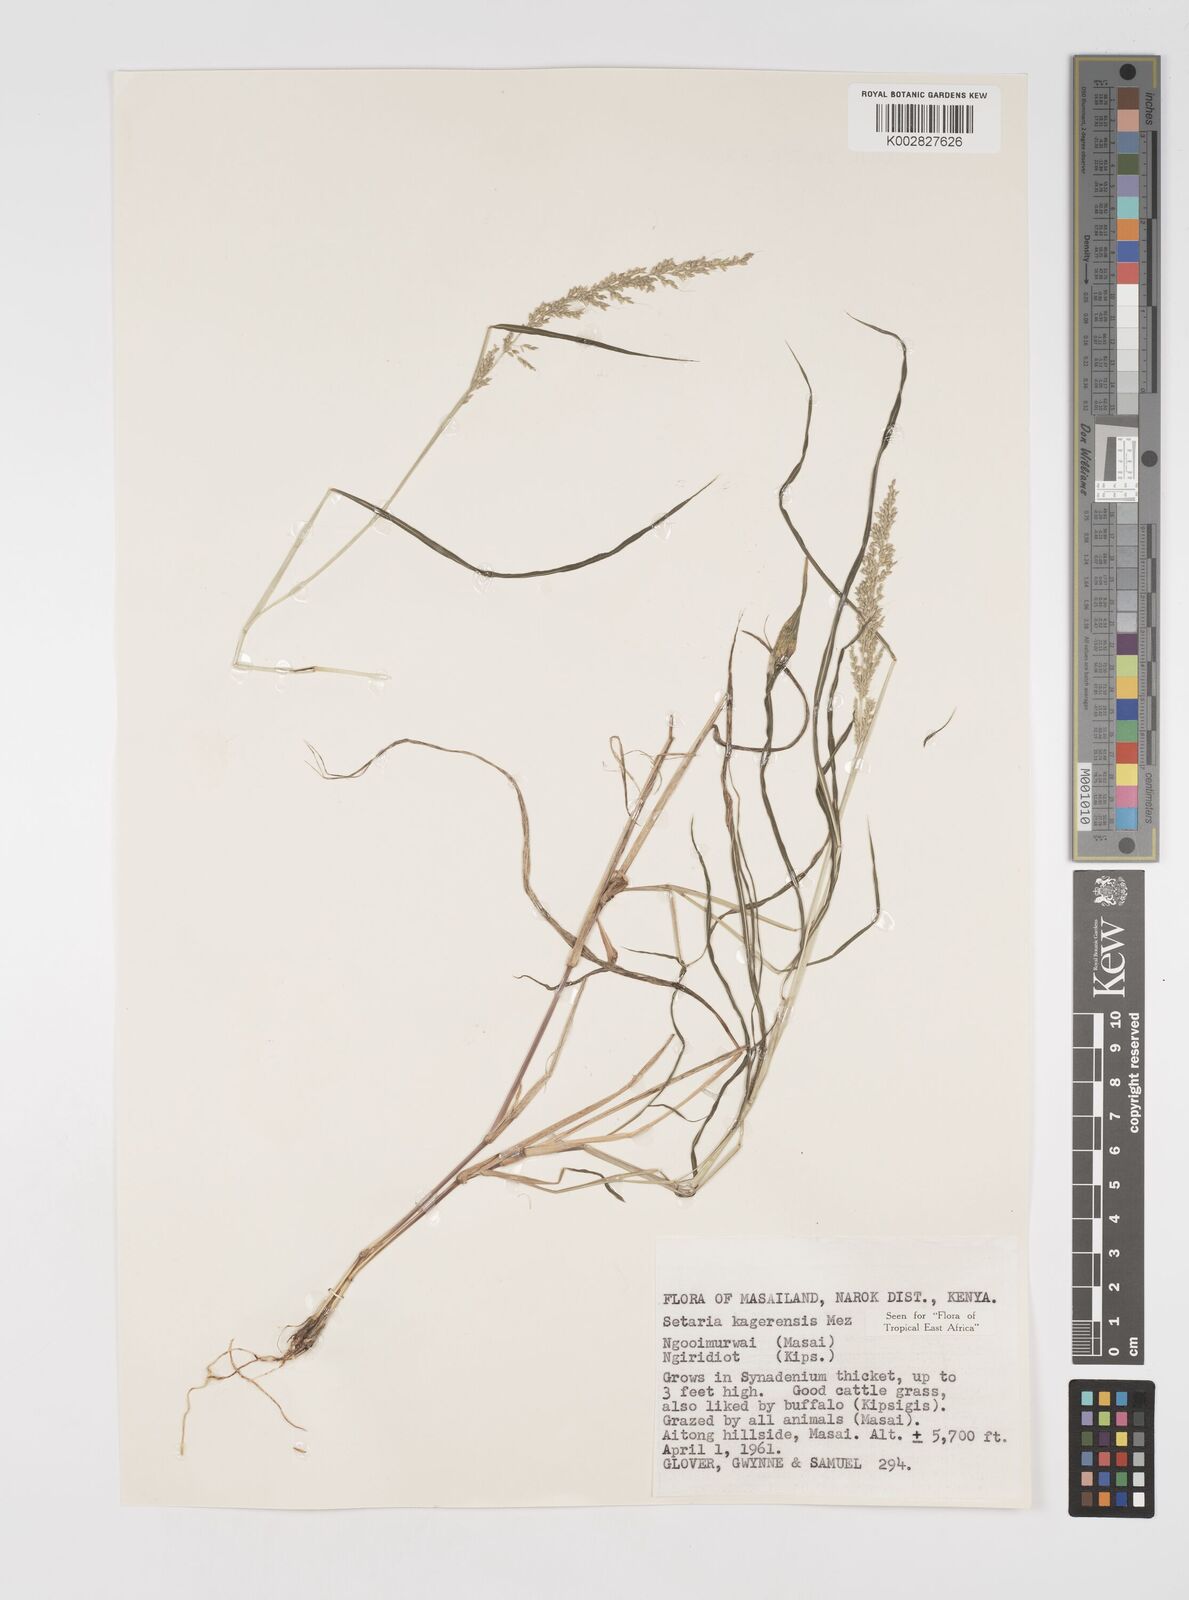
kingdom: Plantae
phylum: Tracheophyta
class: Liliopsida
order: Poales
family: Poaceae
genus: Setaria
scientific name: Setaria kagerensis
